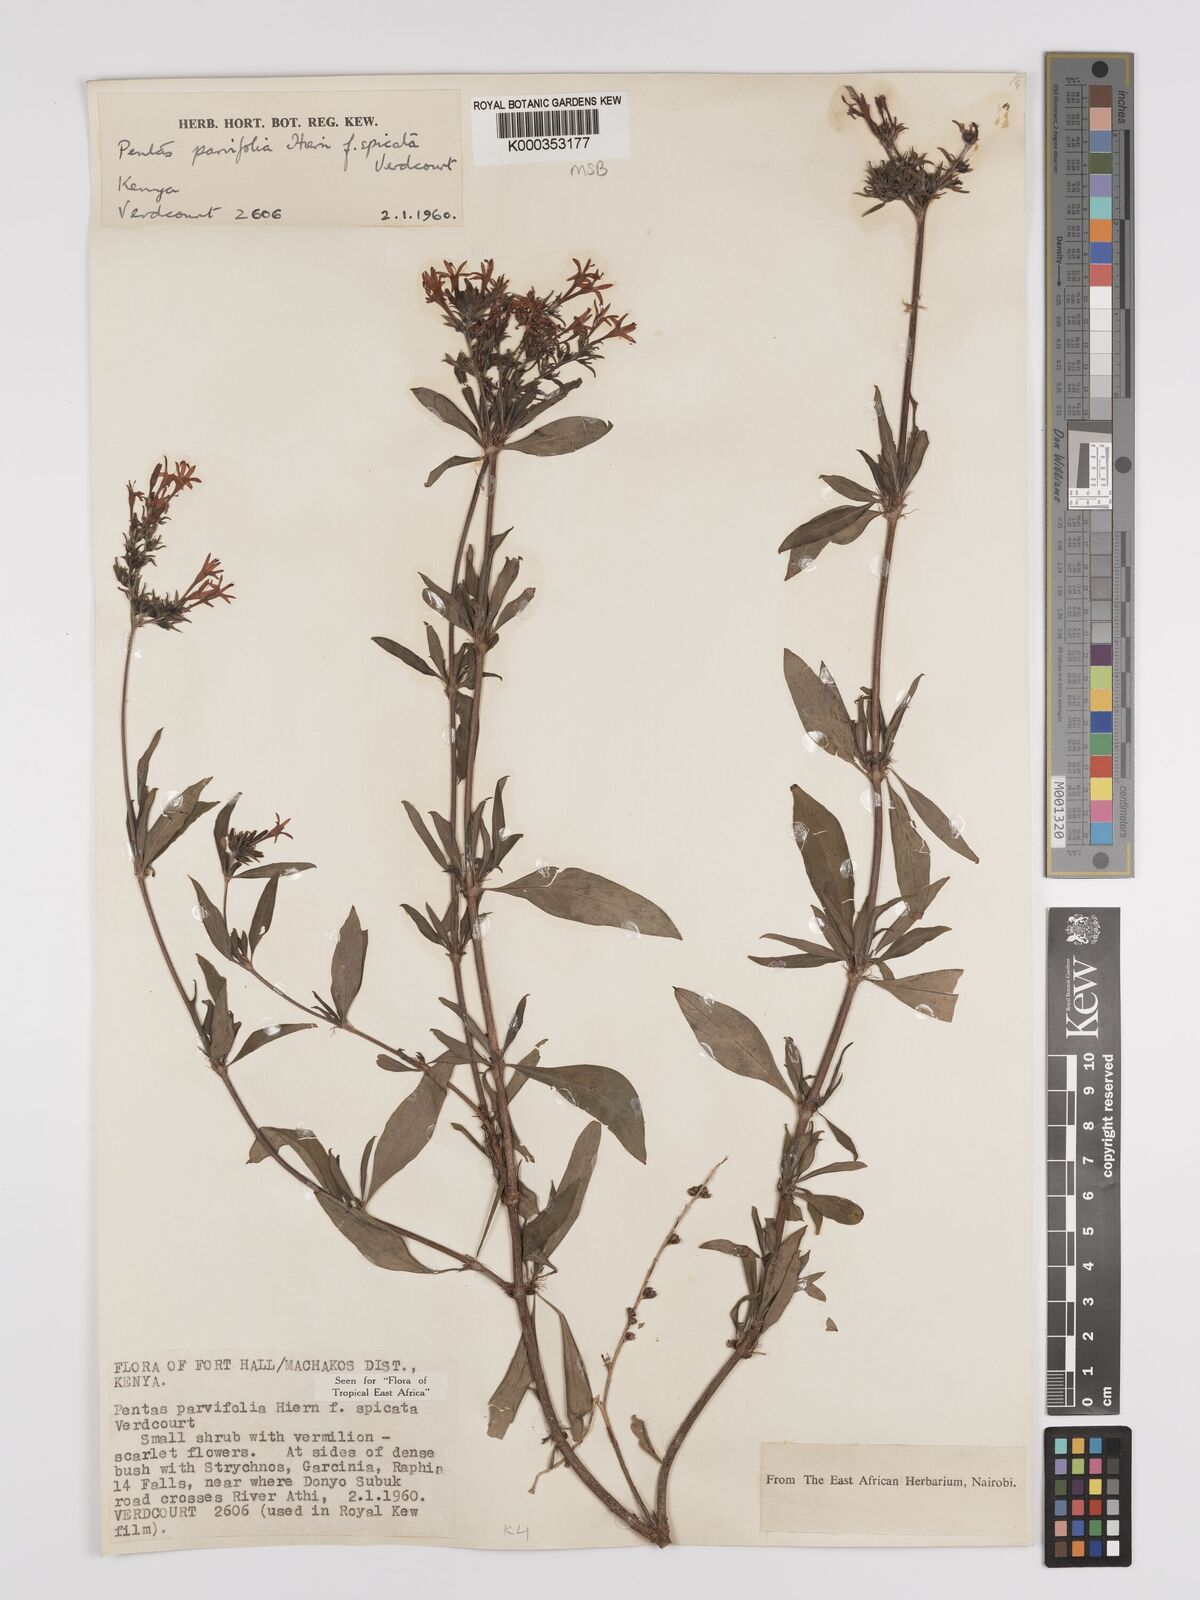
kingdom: Plantae
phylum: Tracheophyta
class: Magnoliopsida
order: Gentianales
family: Rubiaceae
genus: Rhodopentas
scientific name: Rhodopentas parvifolia
